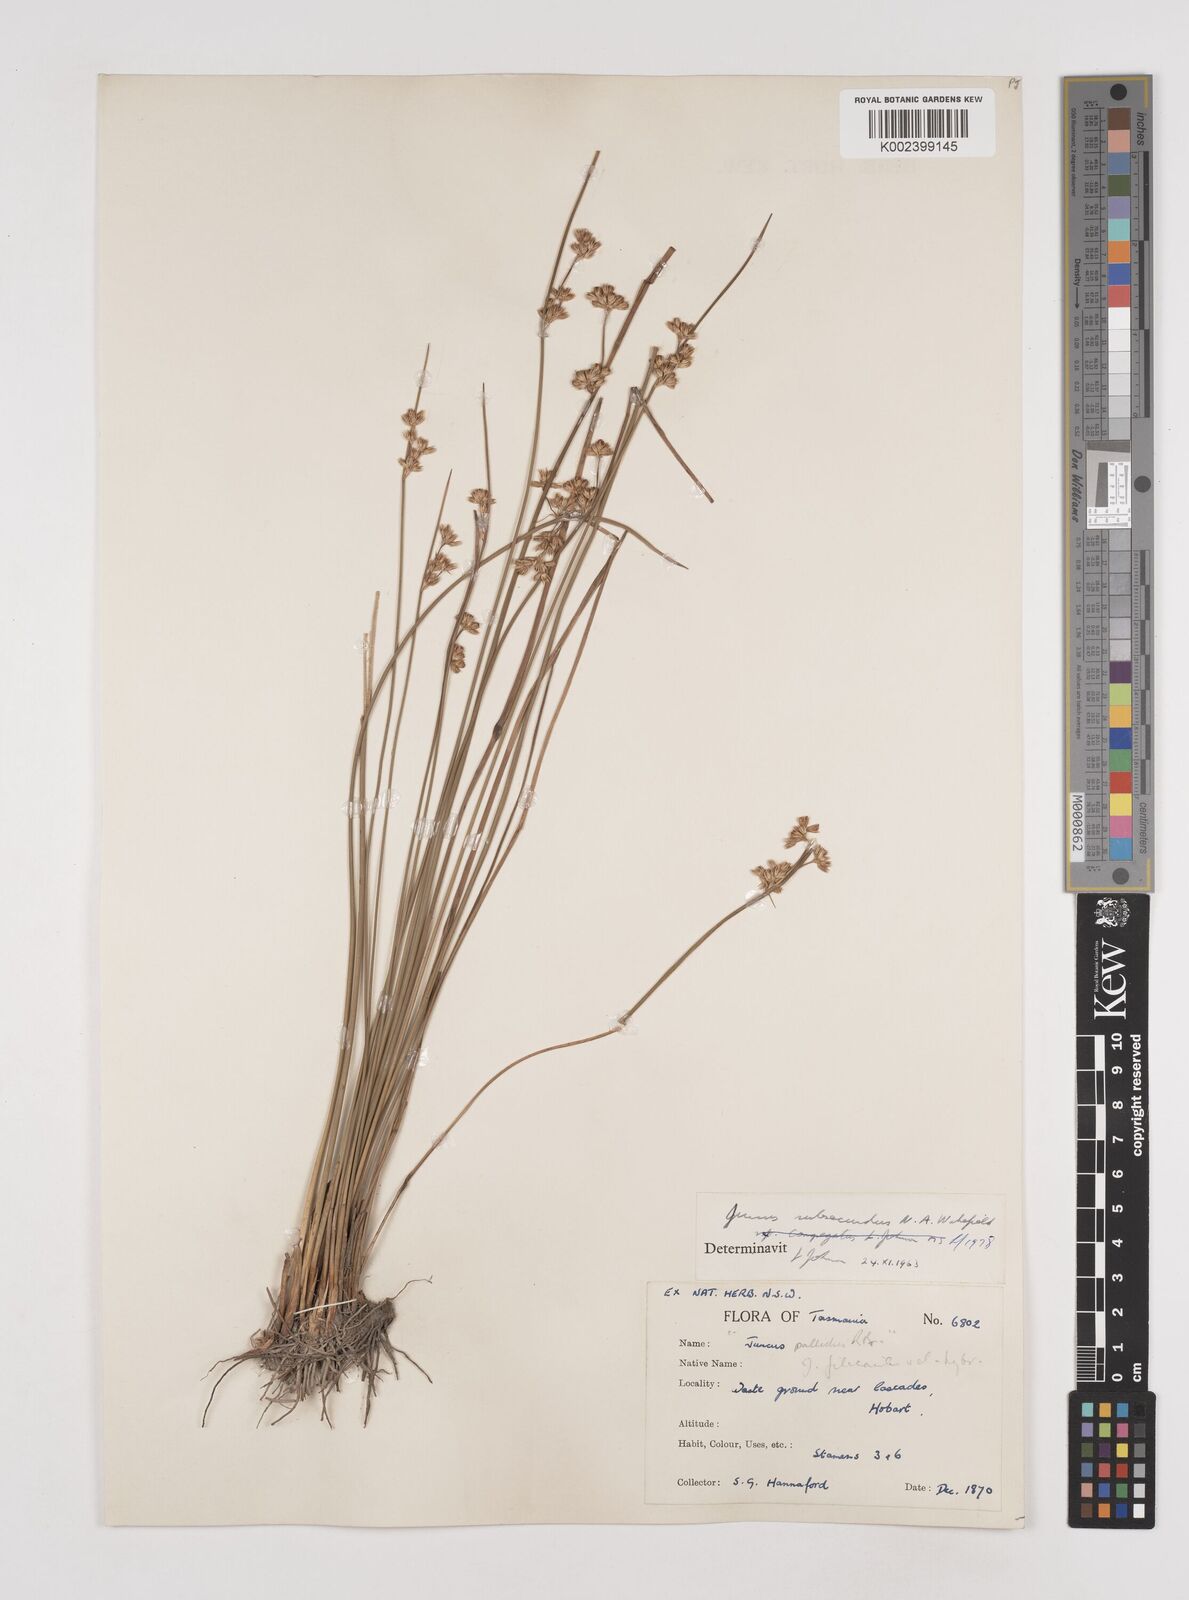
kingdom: Plantae
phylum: Tracheophyta
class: Liliopsida
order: Poales
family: Juncaceae
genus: Juncus
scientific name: Juncus subsecundus
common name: Fingered rush
